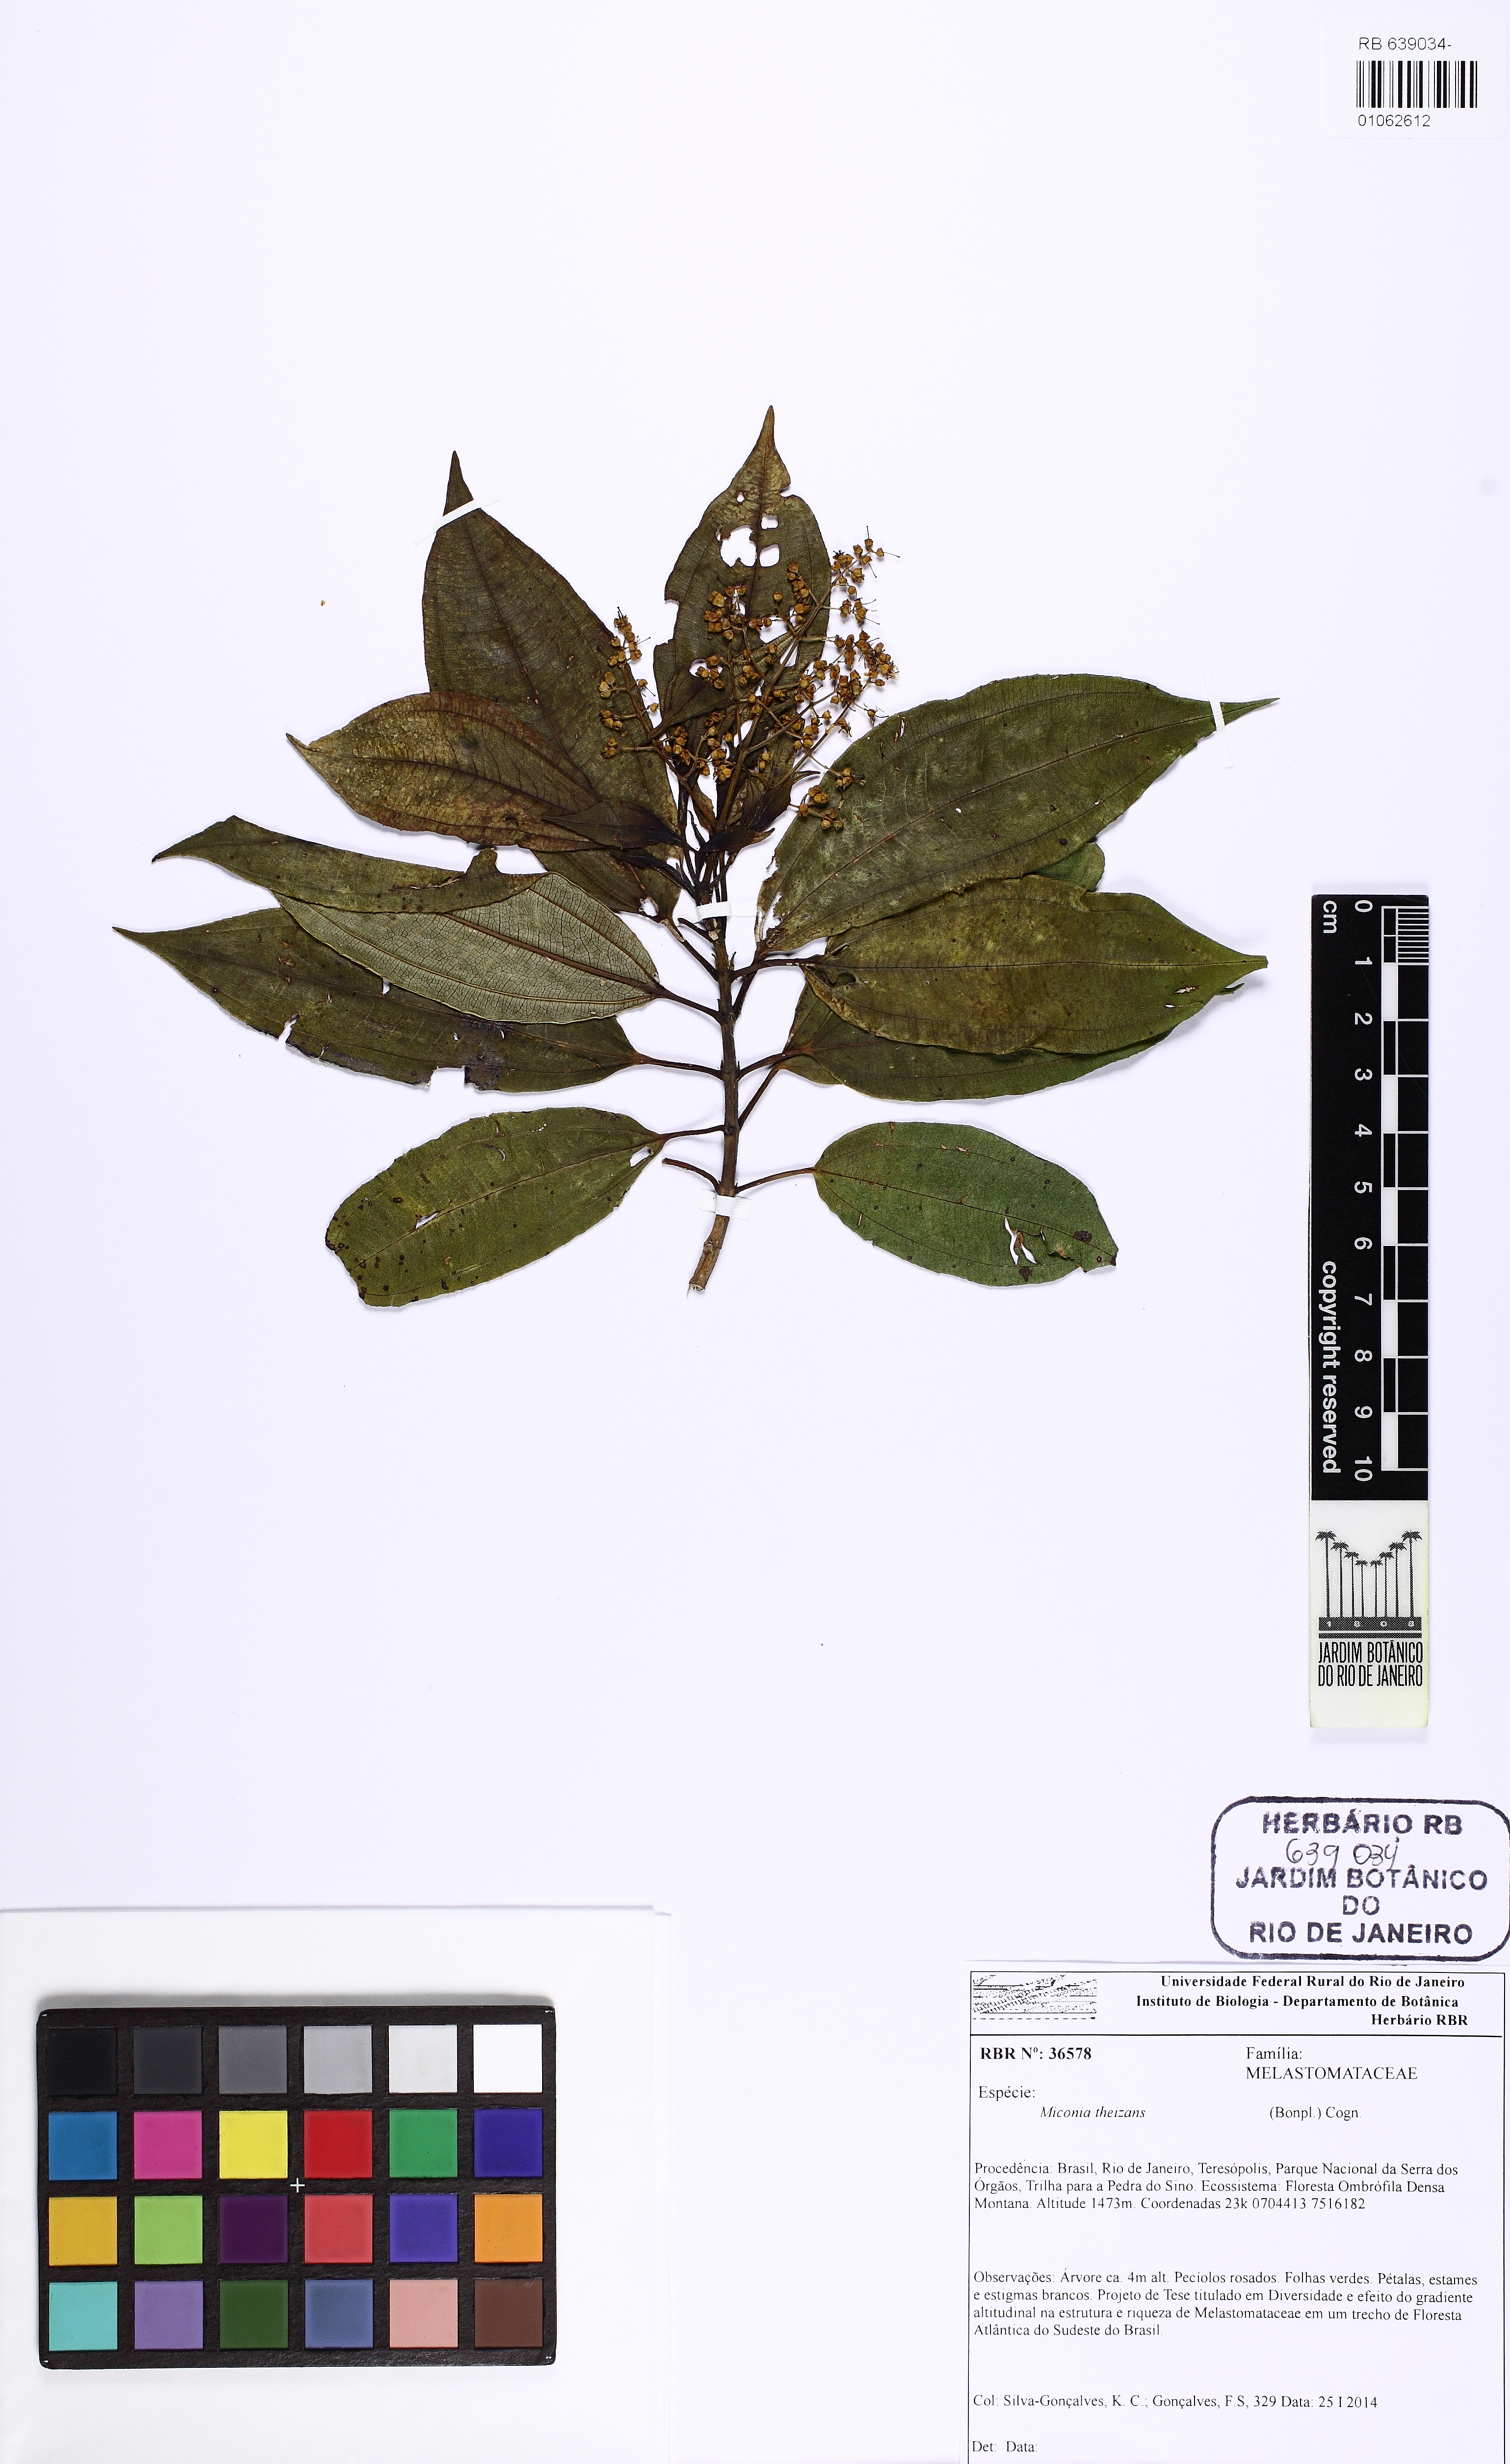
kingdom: Plantae
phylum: Tracheophyta
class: Magnoliopsida
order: Myrtales
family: Melastomataceae
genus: Miconia
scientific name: Miconia theizans
